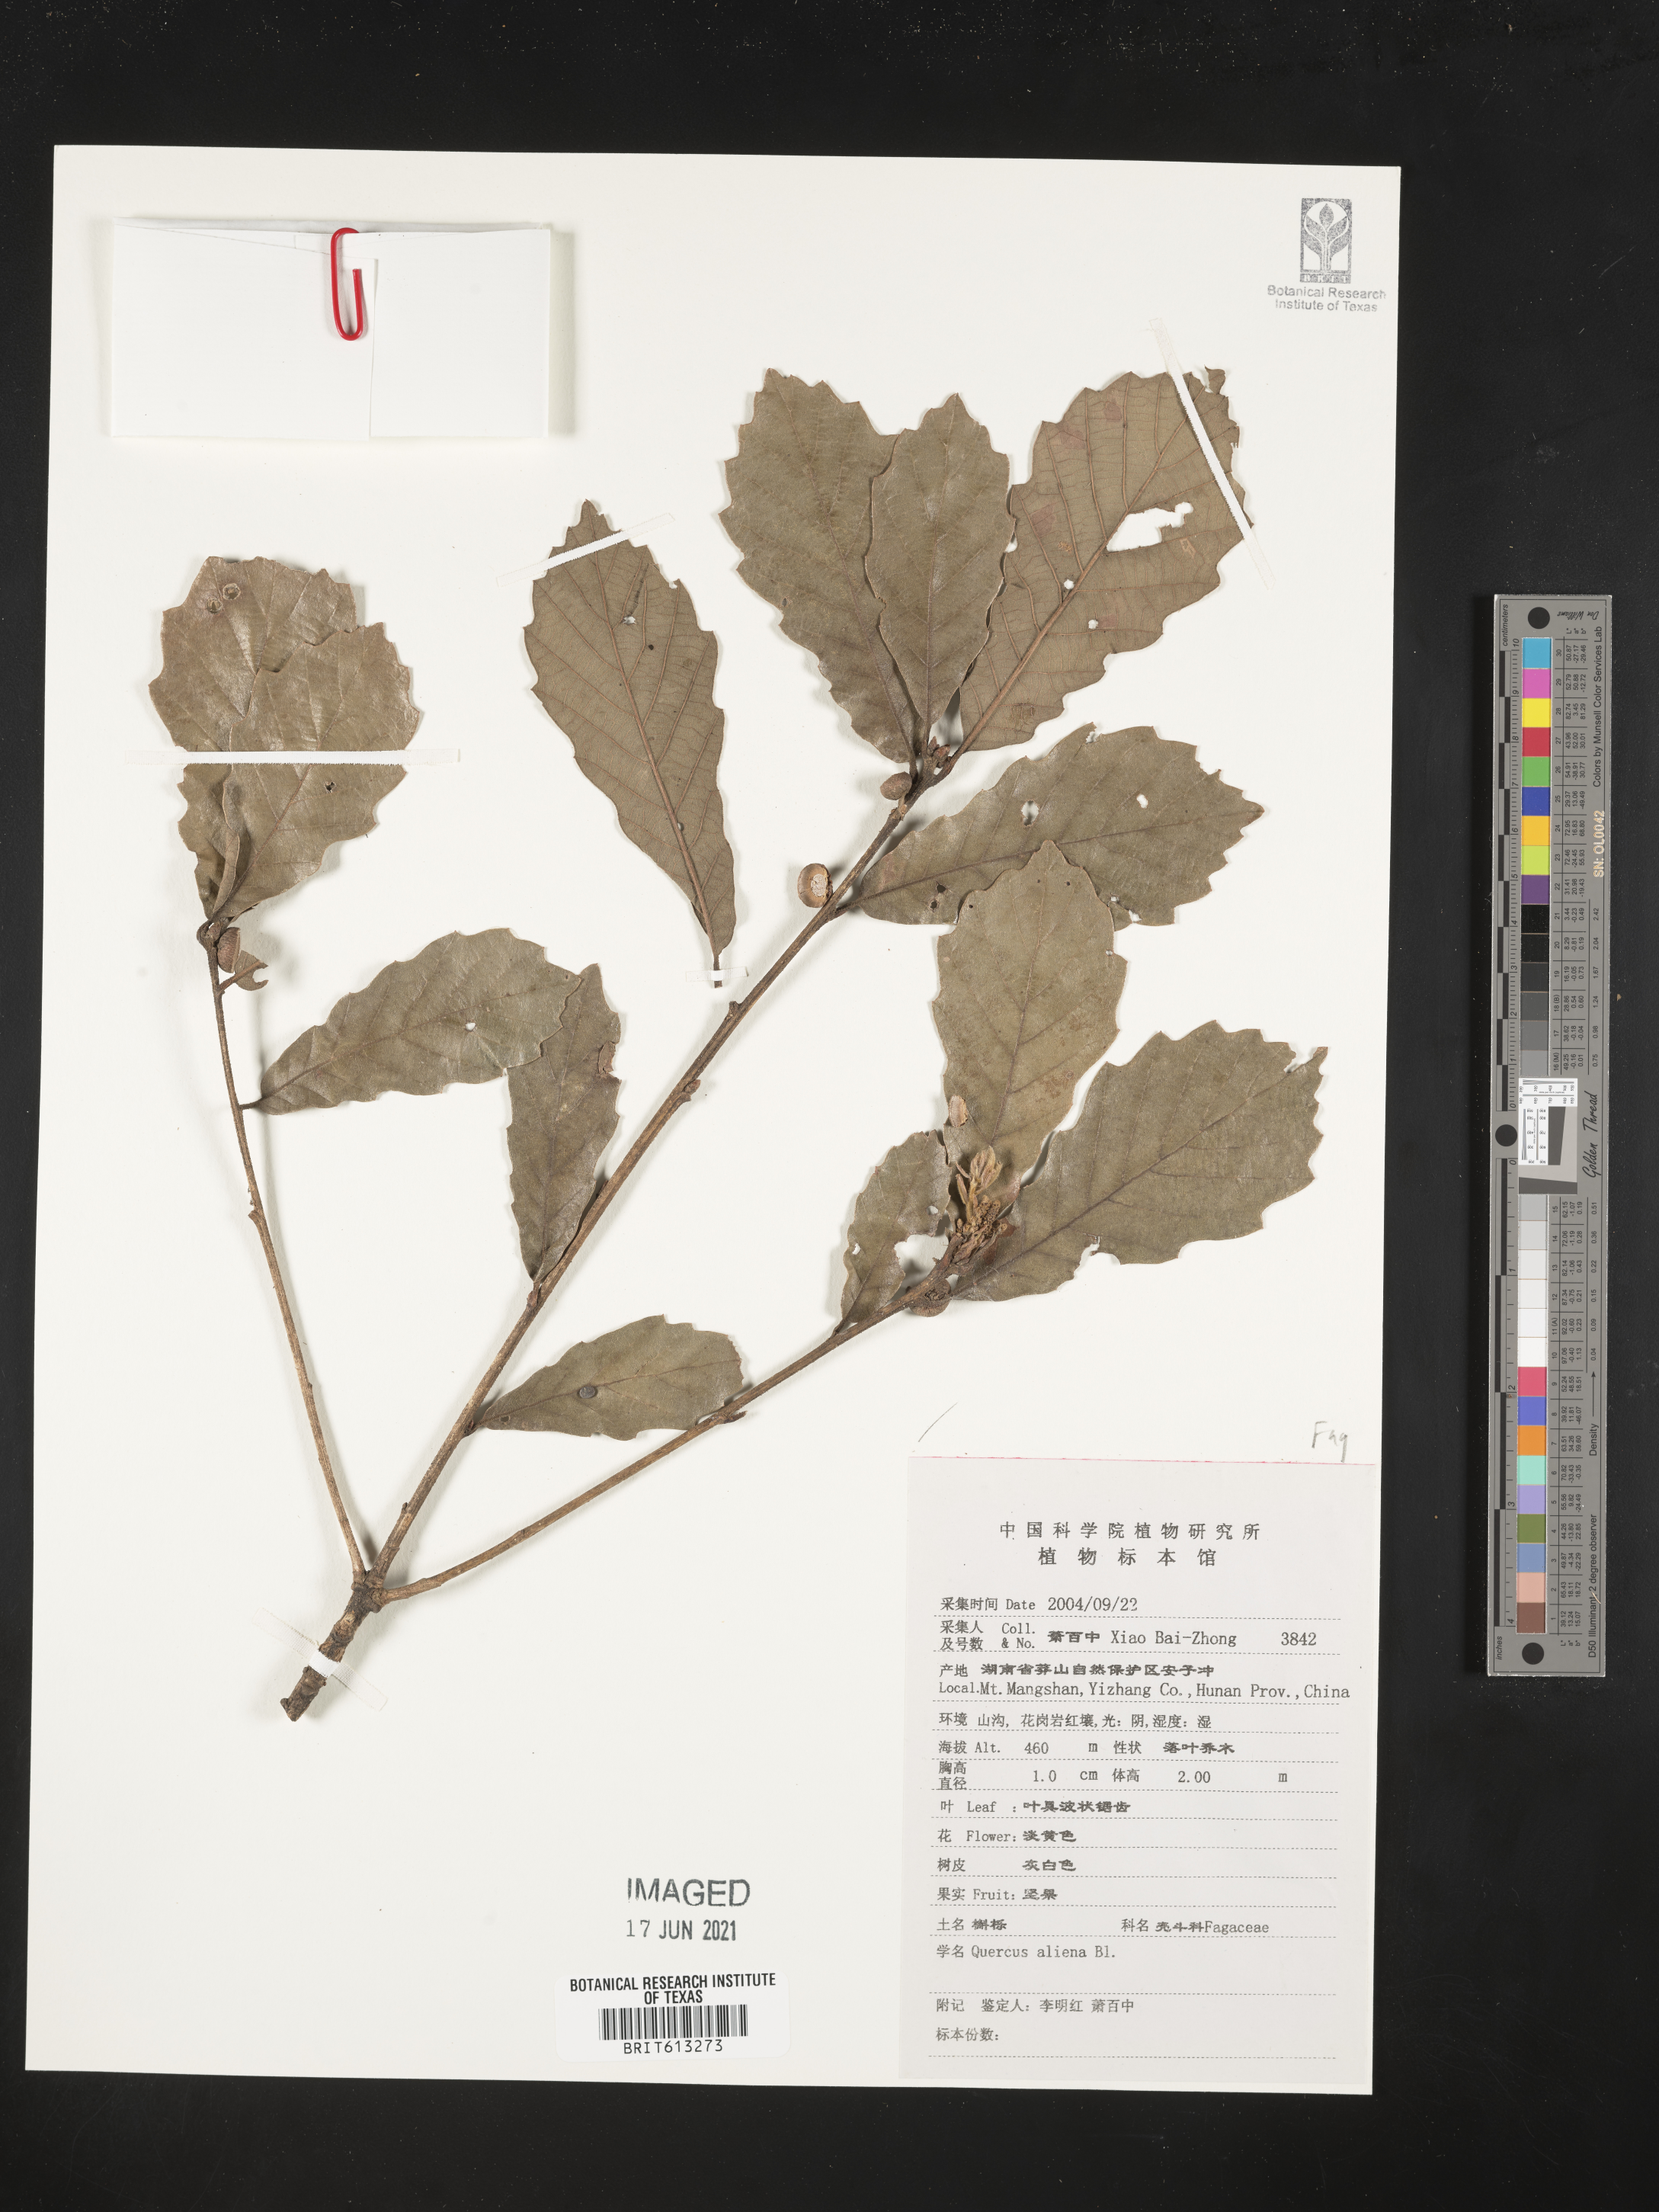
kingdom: Plantae
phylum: Tracheophyta
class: Magnoliopsida
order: Fagales
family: Fagaceae
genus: Quercus
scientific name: Quercus aliena
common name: Oriental white oak
